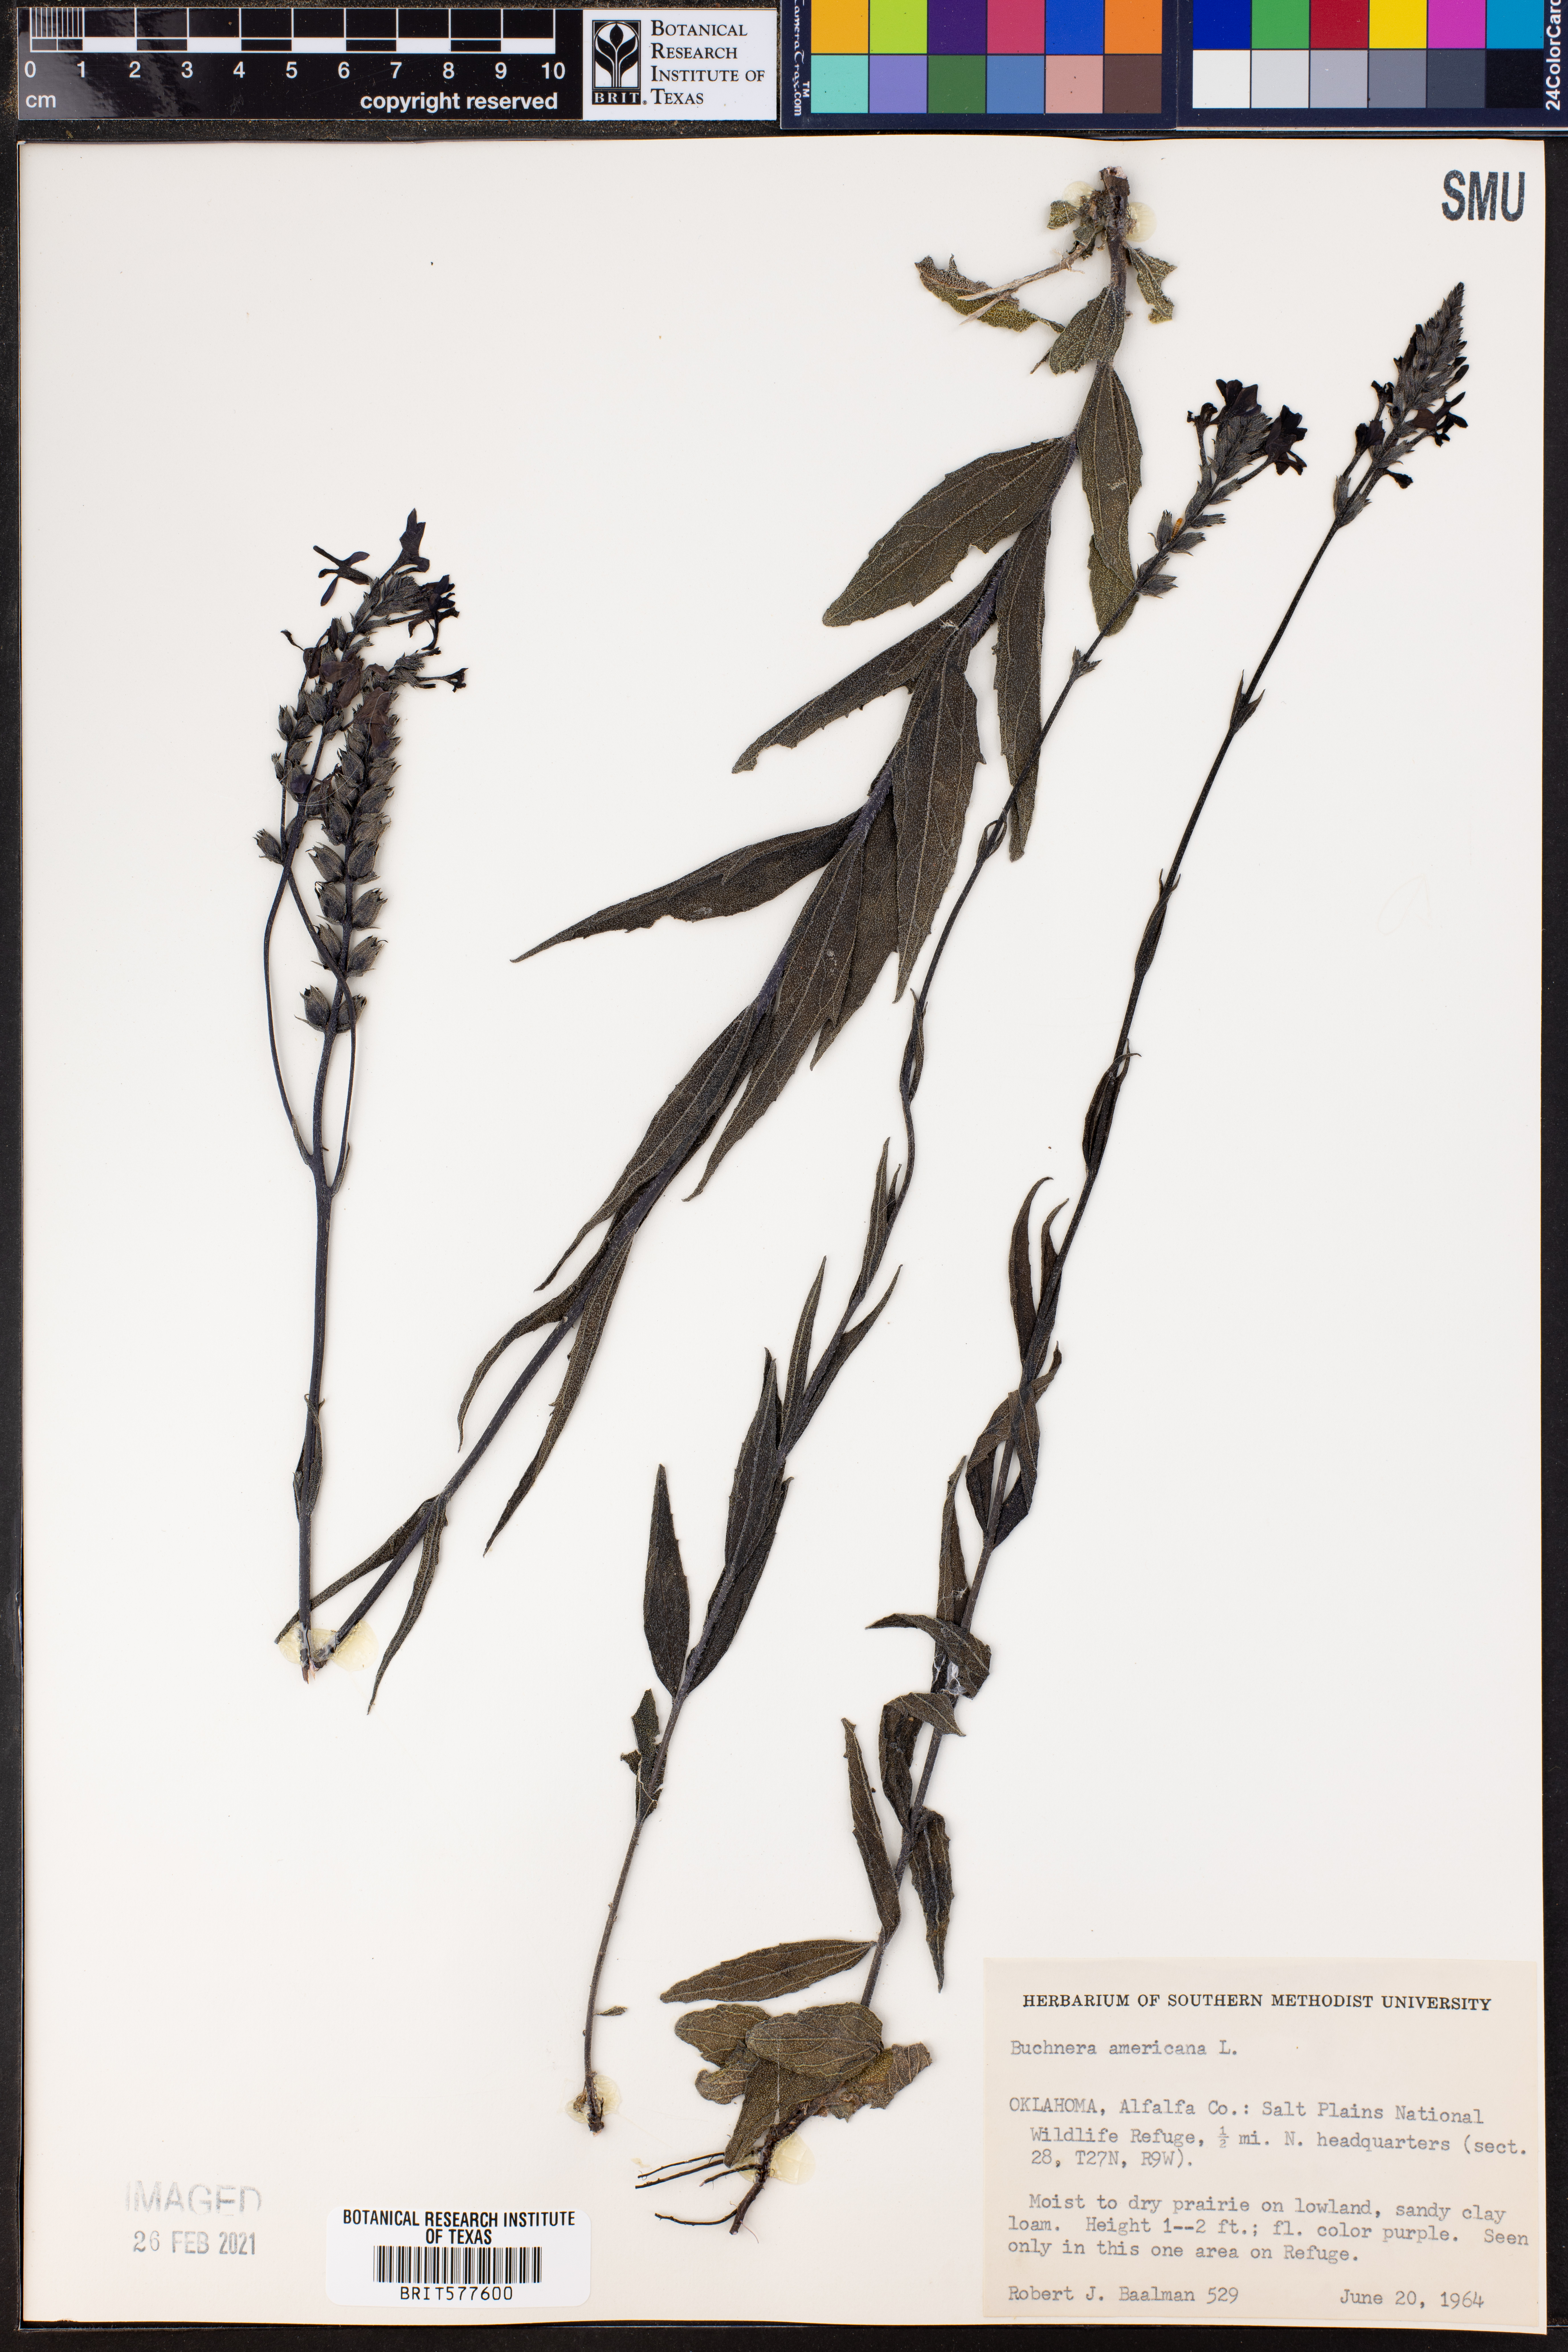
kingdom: Plantae
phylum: Tracheophyta
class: Magnoliopsida
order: Lamiales
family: Orobanchaceae
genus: Buchnera
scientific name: Buchnera americana
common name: American bluehearts
